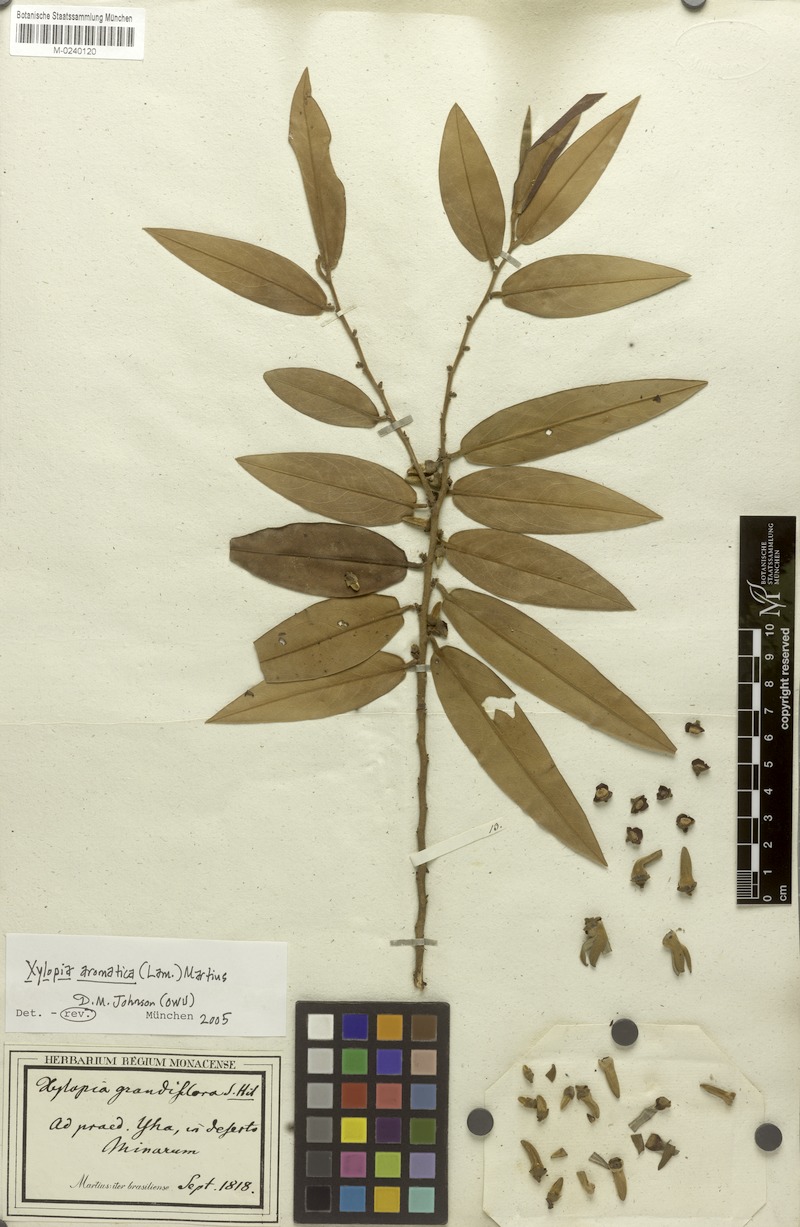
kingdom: Plantae
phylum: Tracheophyta
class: Magnoliopsida
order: Magnoliales
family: Annonaceae
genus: Xylopia
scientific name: Xylopia aromatica
